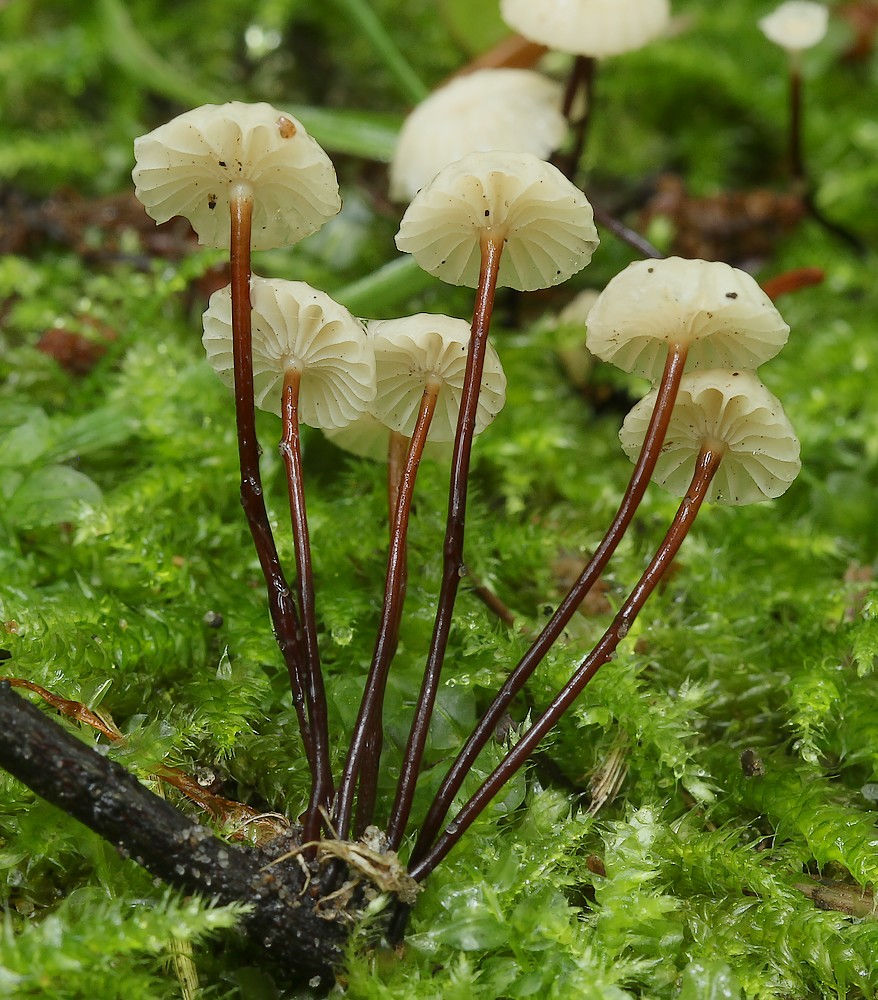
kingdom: Fungi
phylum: Basidiomycota
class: Agaricomycetes
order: Agaricales
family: Marasmiaceae
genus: Marasmius
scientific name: Marasmius rotula
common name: hjul-bruskhat
